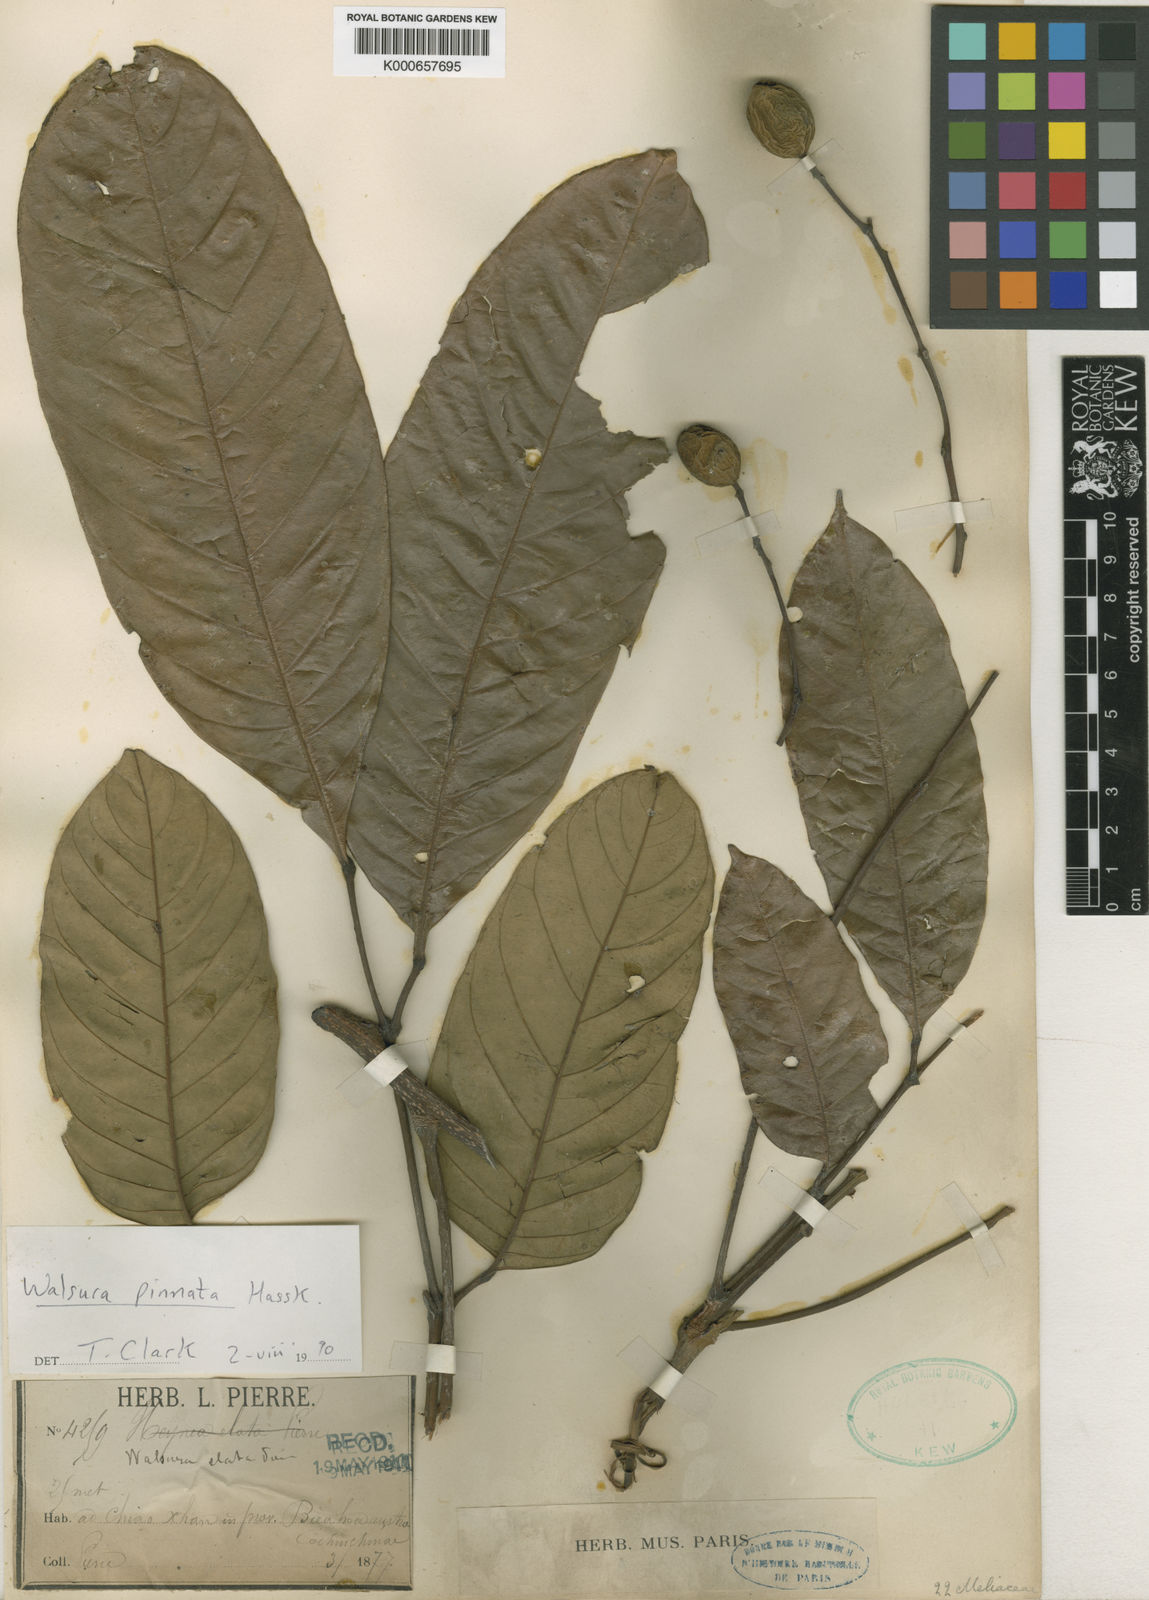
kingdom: Plantae
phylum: Tracheophyta
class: Magnoliopsida
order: Sapindales
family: Meliaceae
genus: Walsura
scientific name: Walsura pinnata
